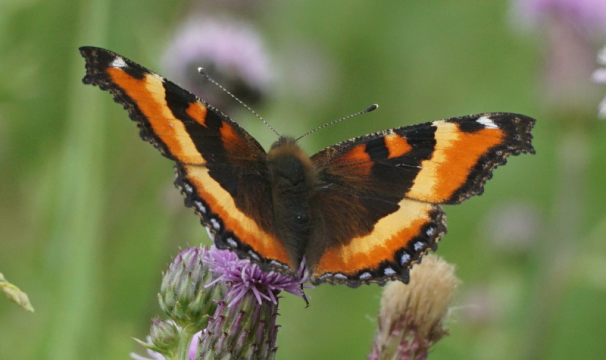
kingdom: Animalia
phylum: Arthropoda
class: Insecta
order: Lepidoptera
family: Nymphalidae
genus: Aglais
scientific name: Aglais milberti
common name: Milbert's Tortoiseshell
